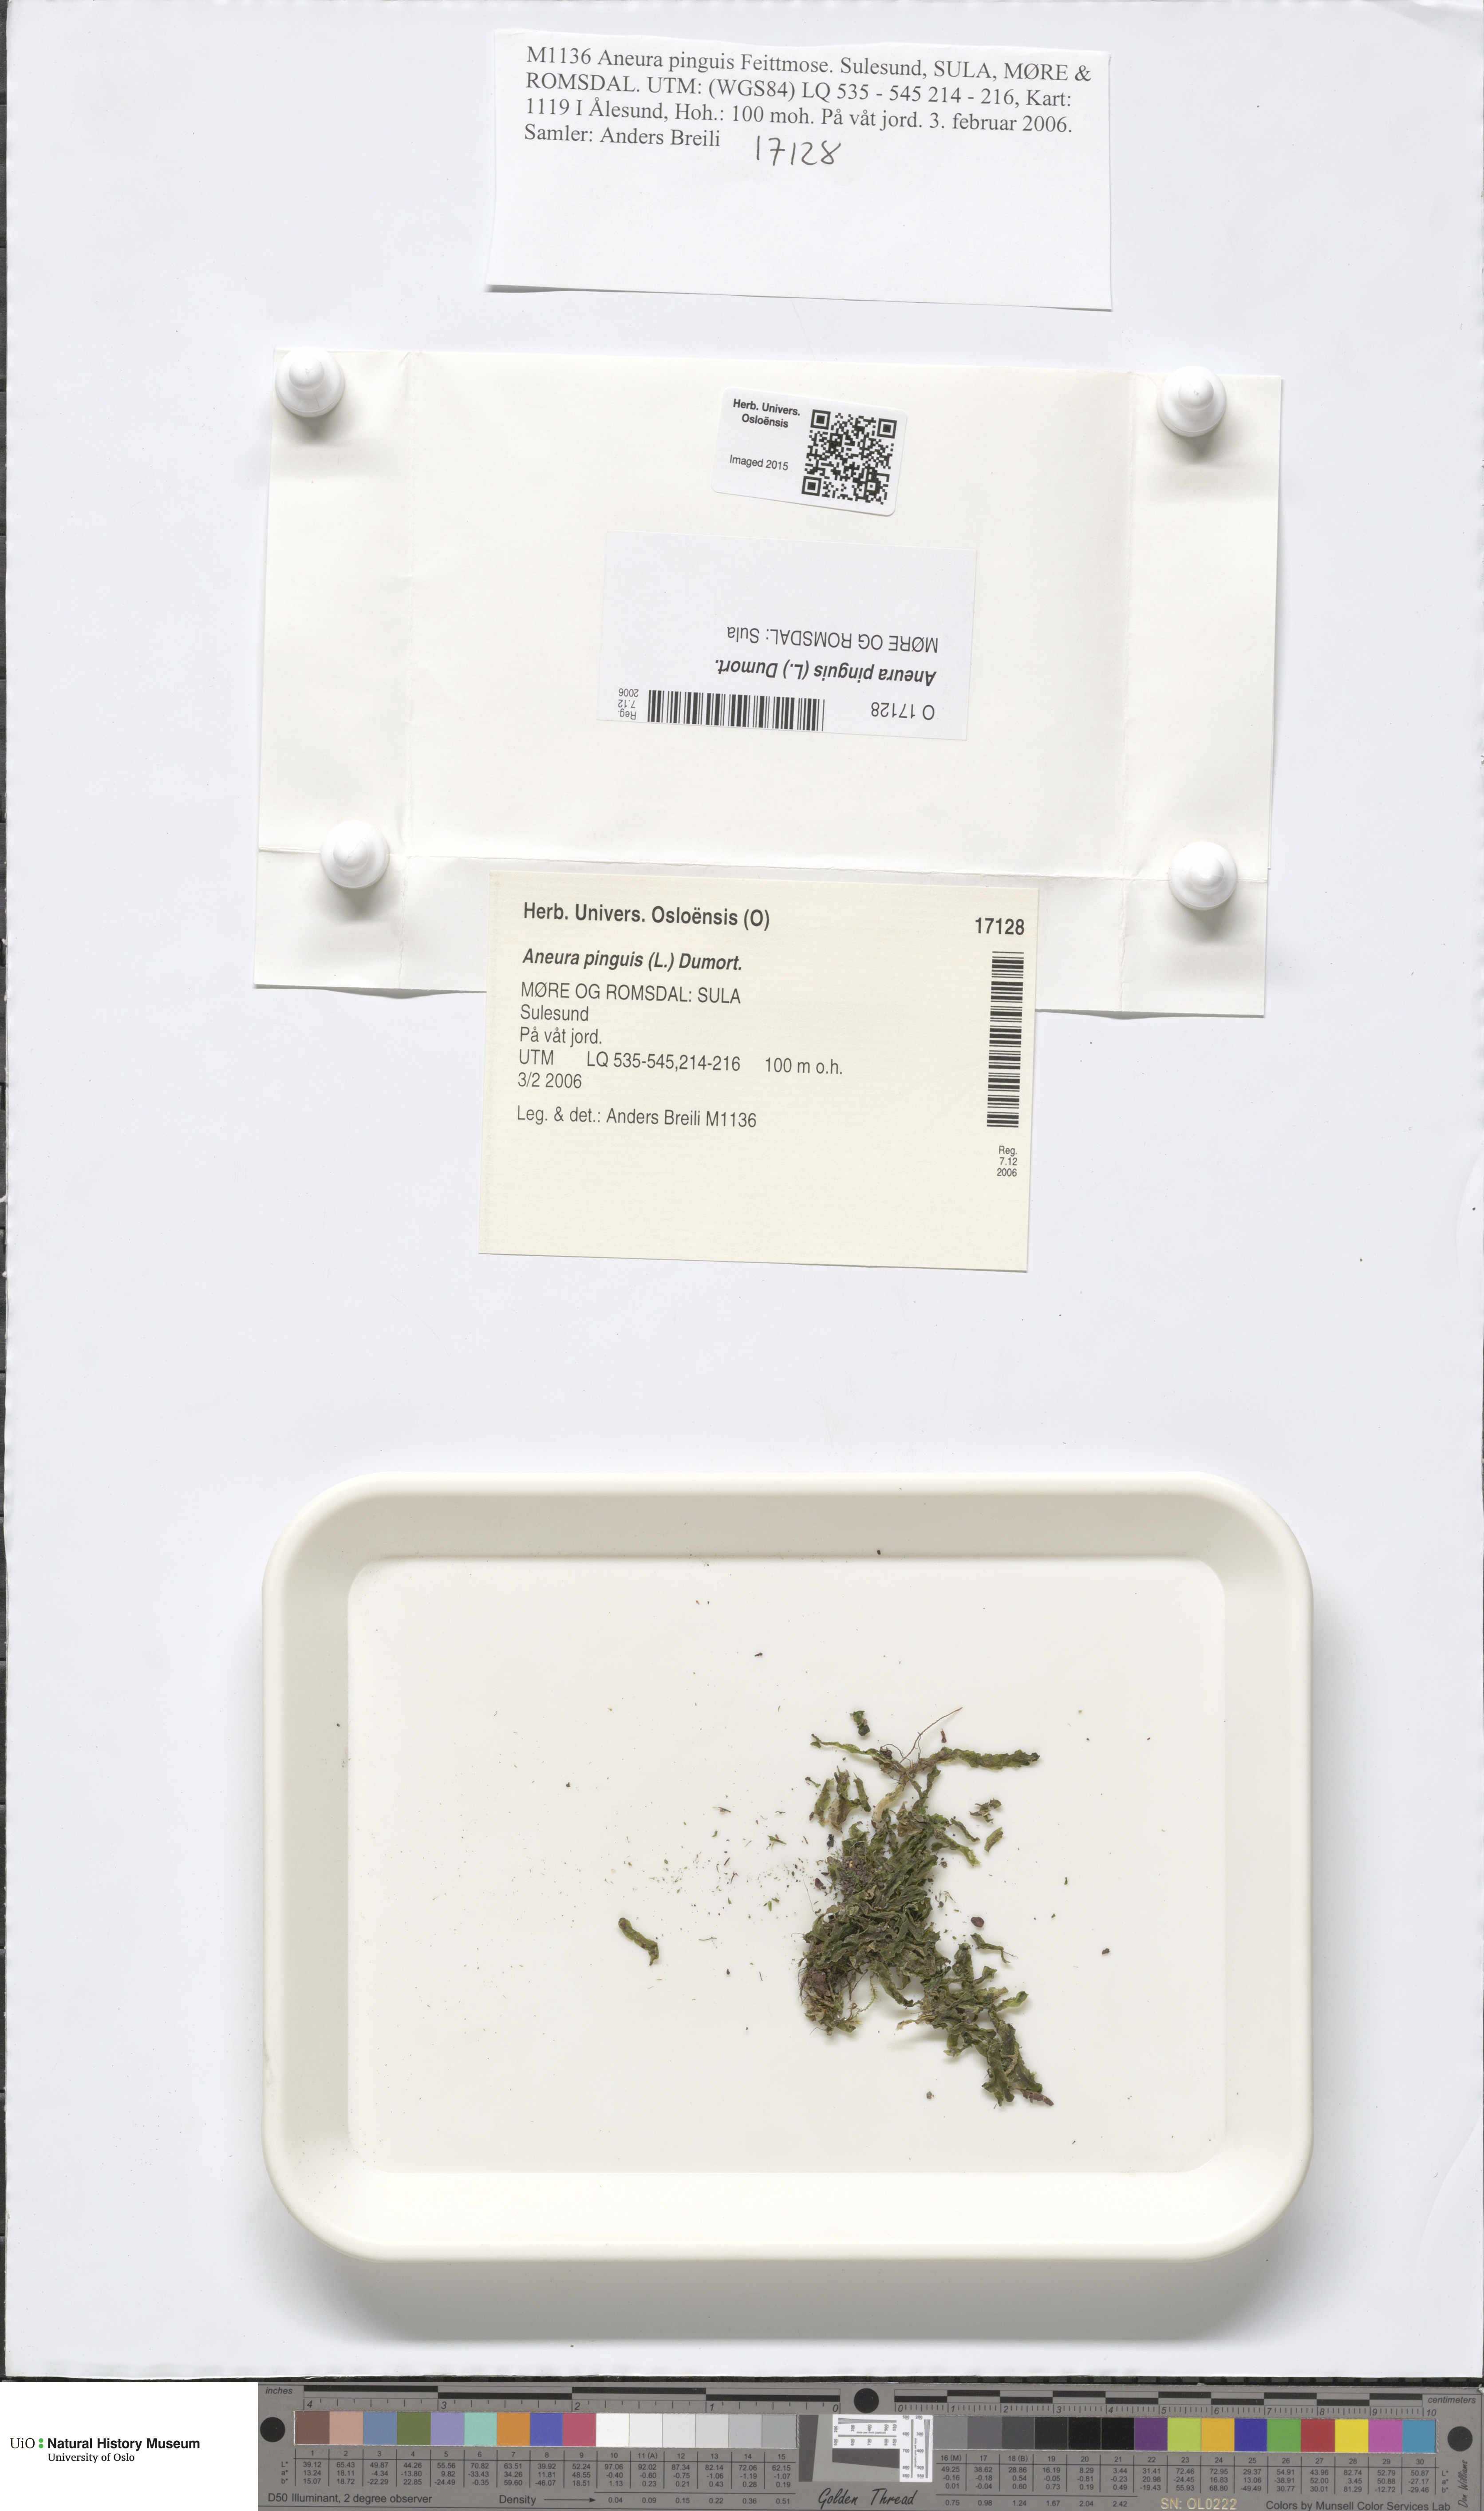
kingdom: Plantae
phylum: Marchantiophyta
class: Jungermanniopsida
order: Metzgeriales
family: Aneuraceae
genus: Aneura
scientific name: Aneura pinguis
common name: Common greasewort
